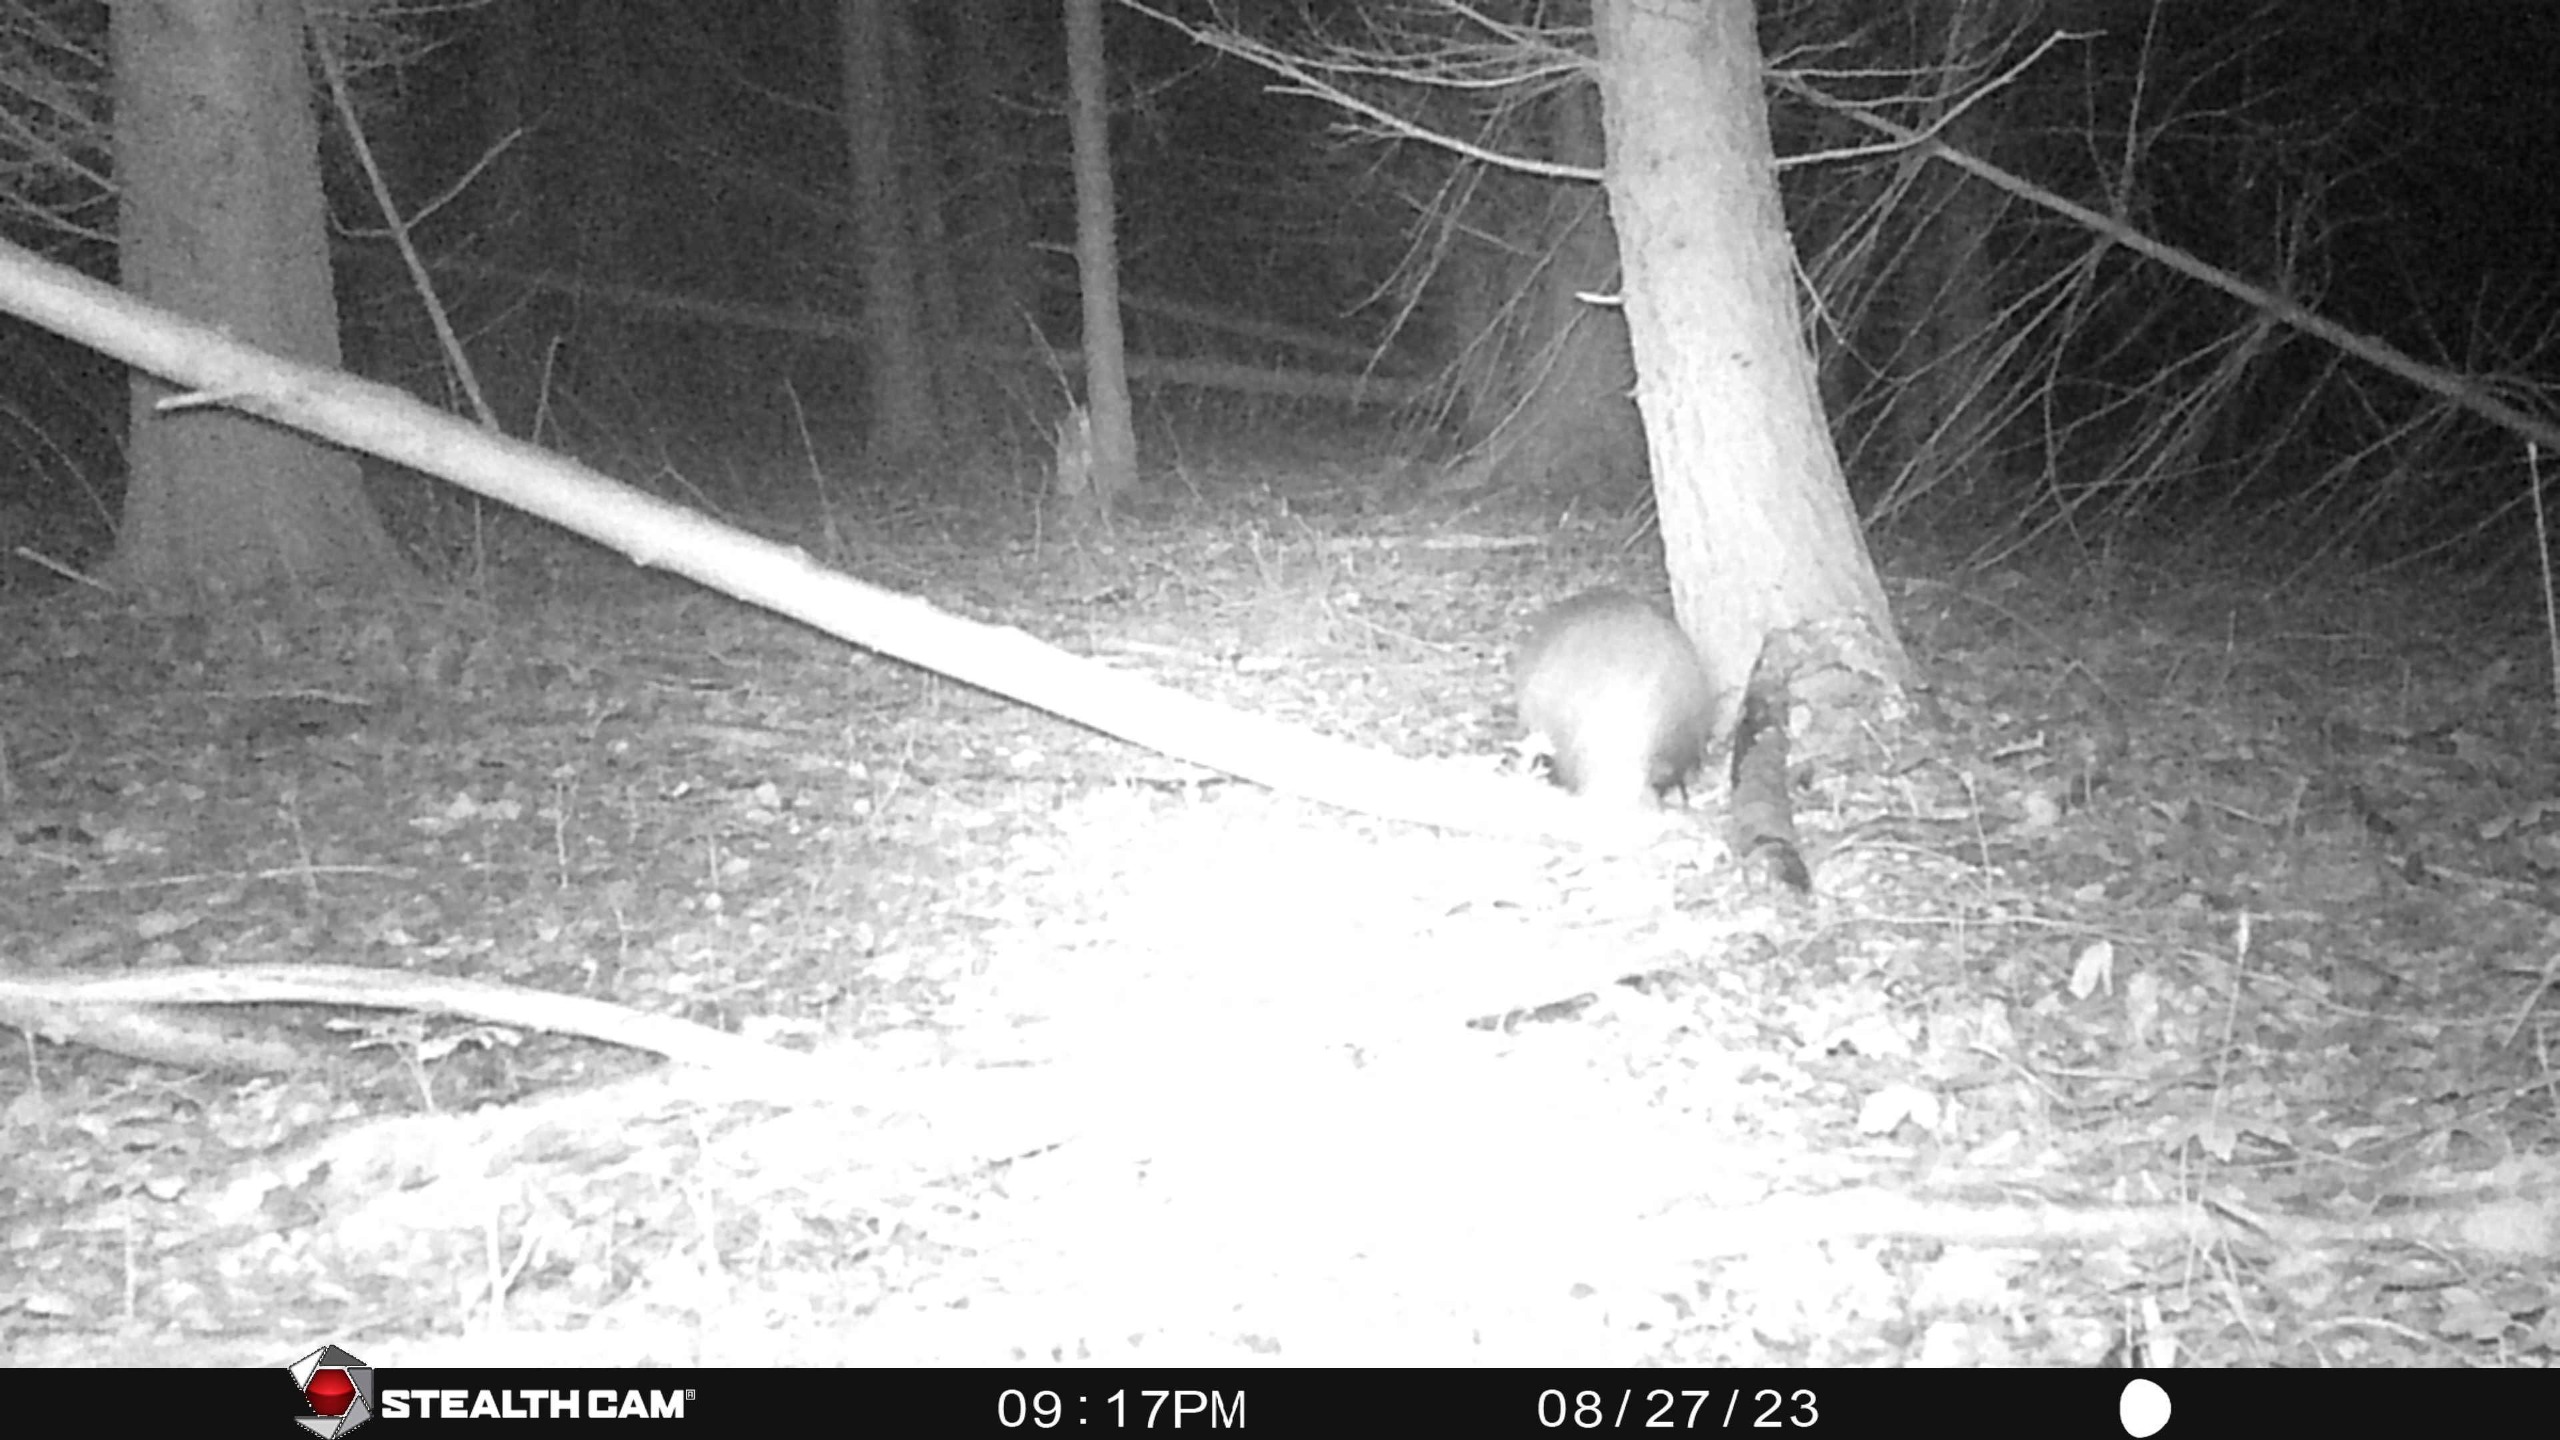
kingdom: Animalia
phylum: Chordata
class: Mammalia
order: Carnivora
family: Mustelidae
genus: Meles
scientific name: Meles meles
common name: Grævling
